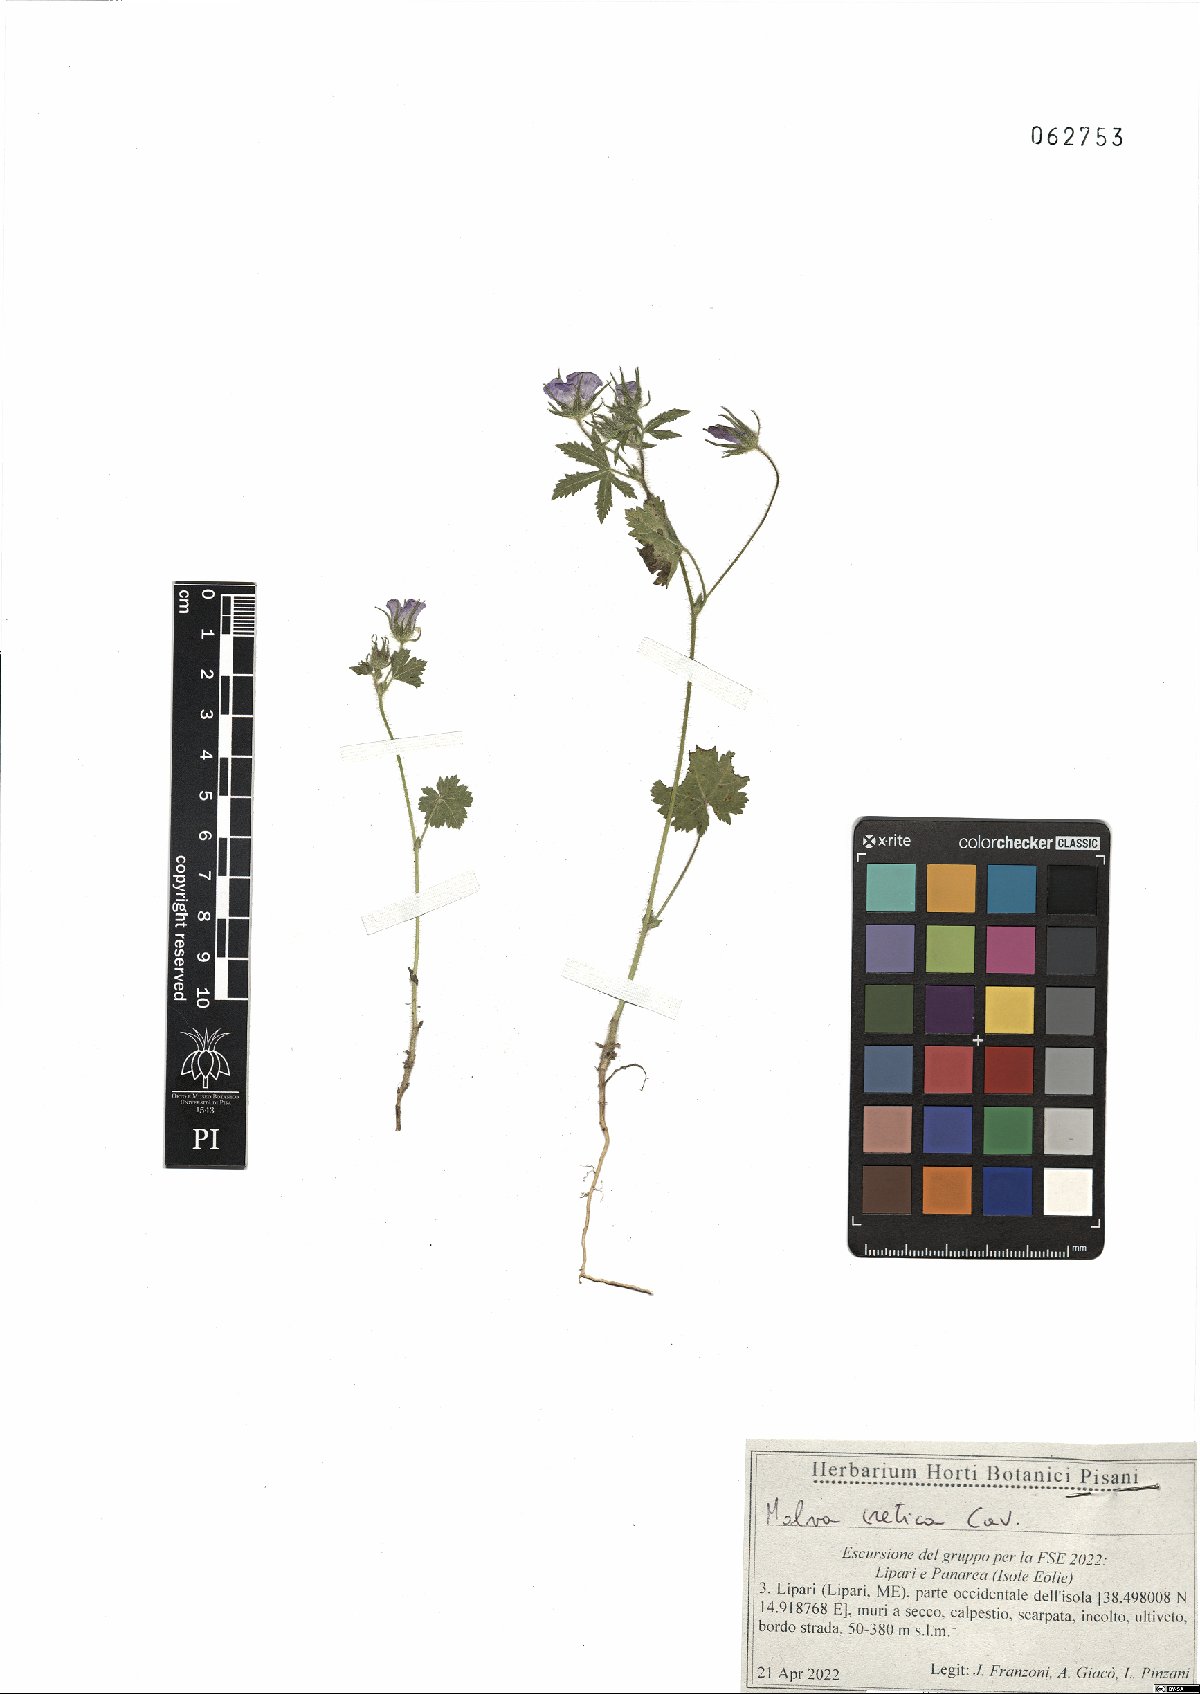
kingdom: Plantae
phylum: Tracheophyta
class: Magnoliopsida
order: Malvales
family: Malvaceae
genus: Malva
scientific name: Malva cretica
